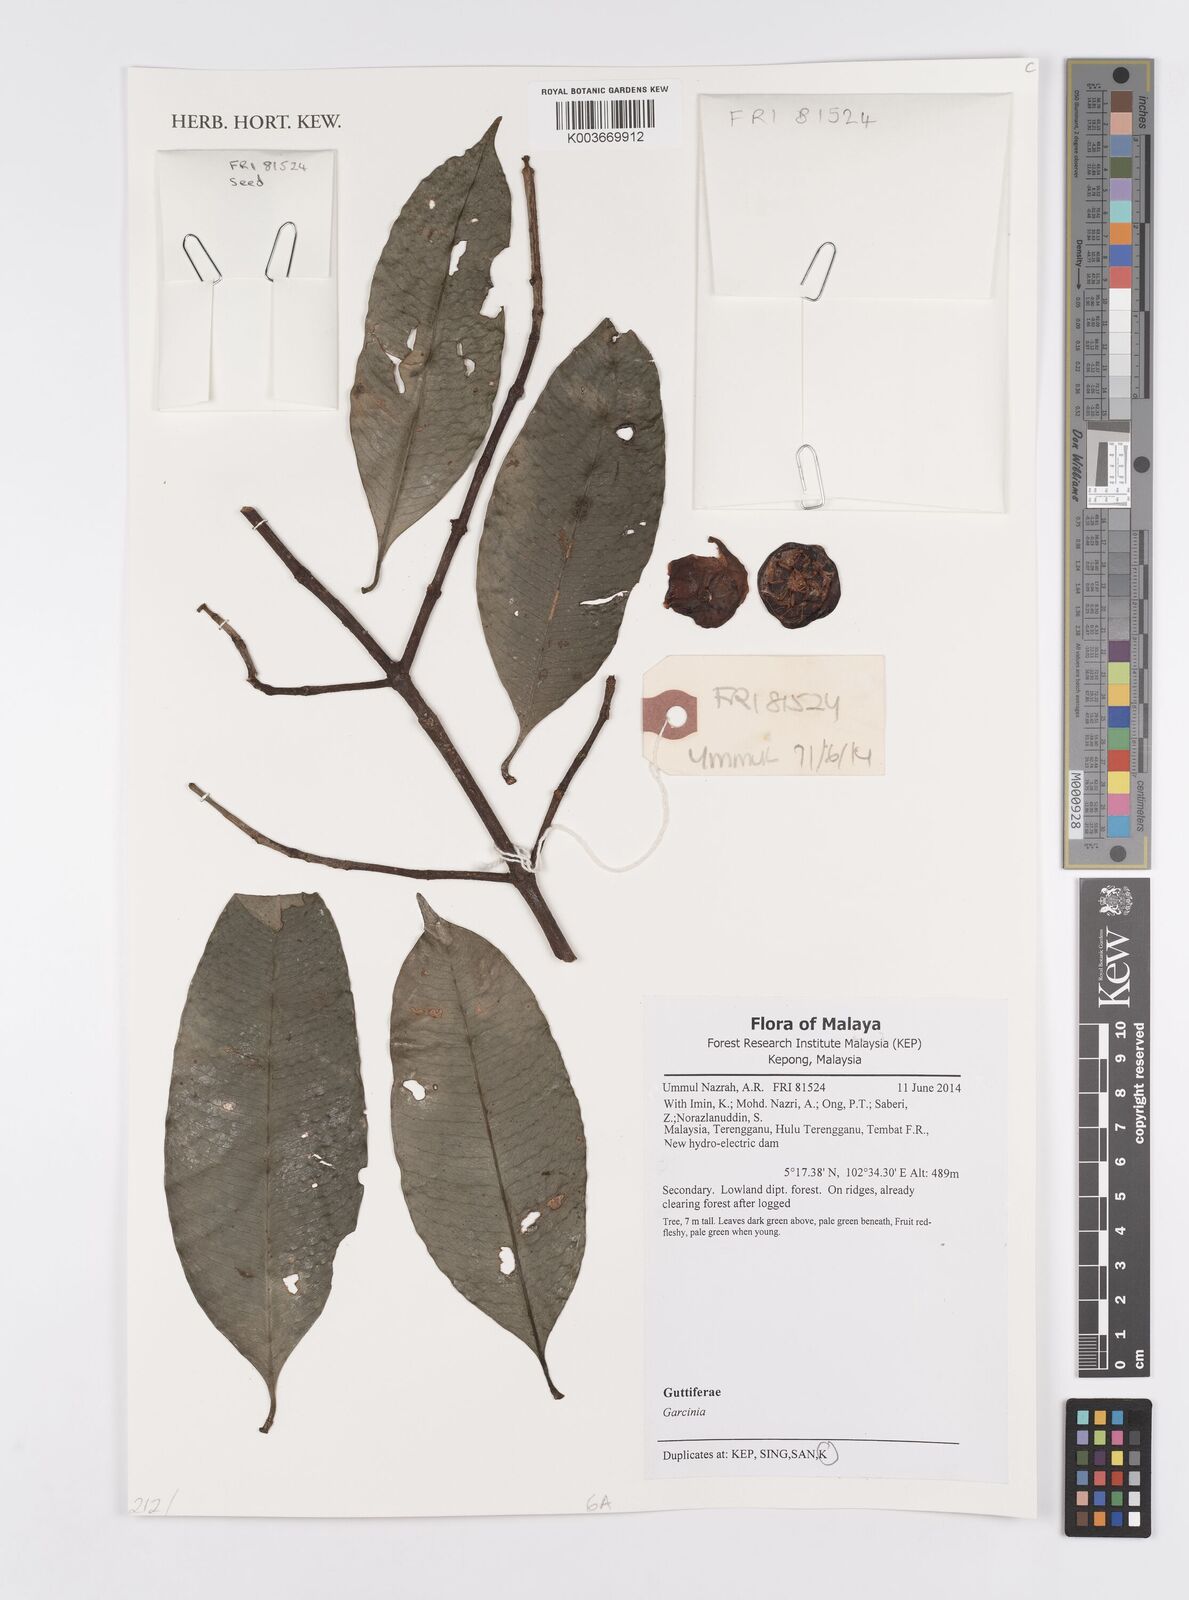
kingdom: Plantae
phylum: Tracheophyta
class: Magnoliopsida
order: Malpighiales
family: Clusiaceae
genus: Garcinia
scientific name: Garcinia
